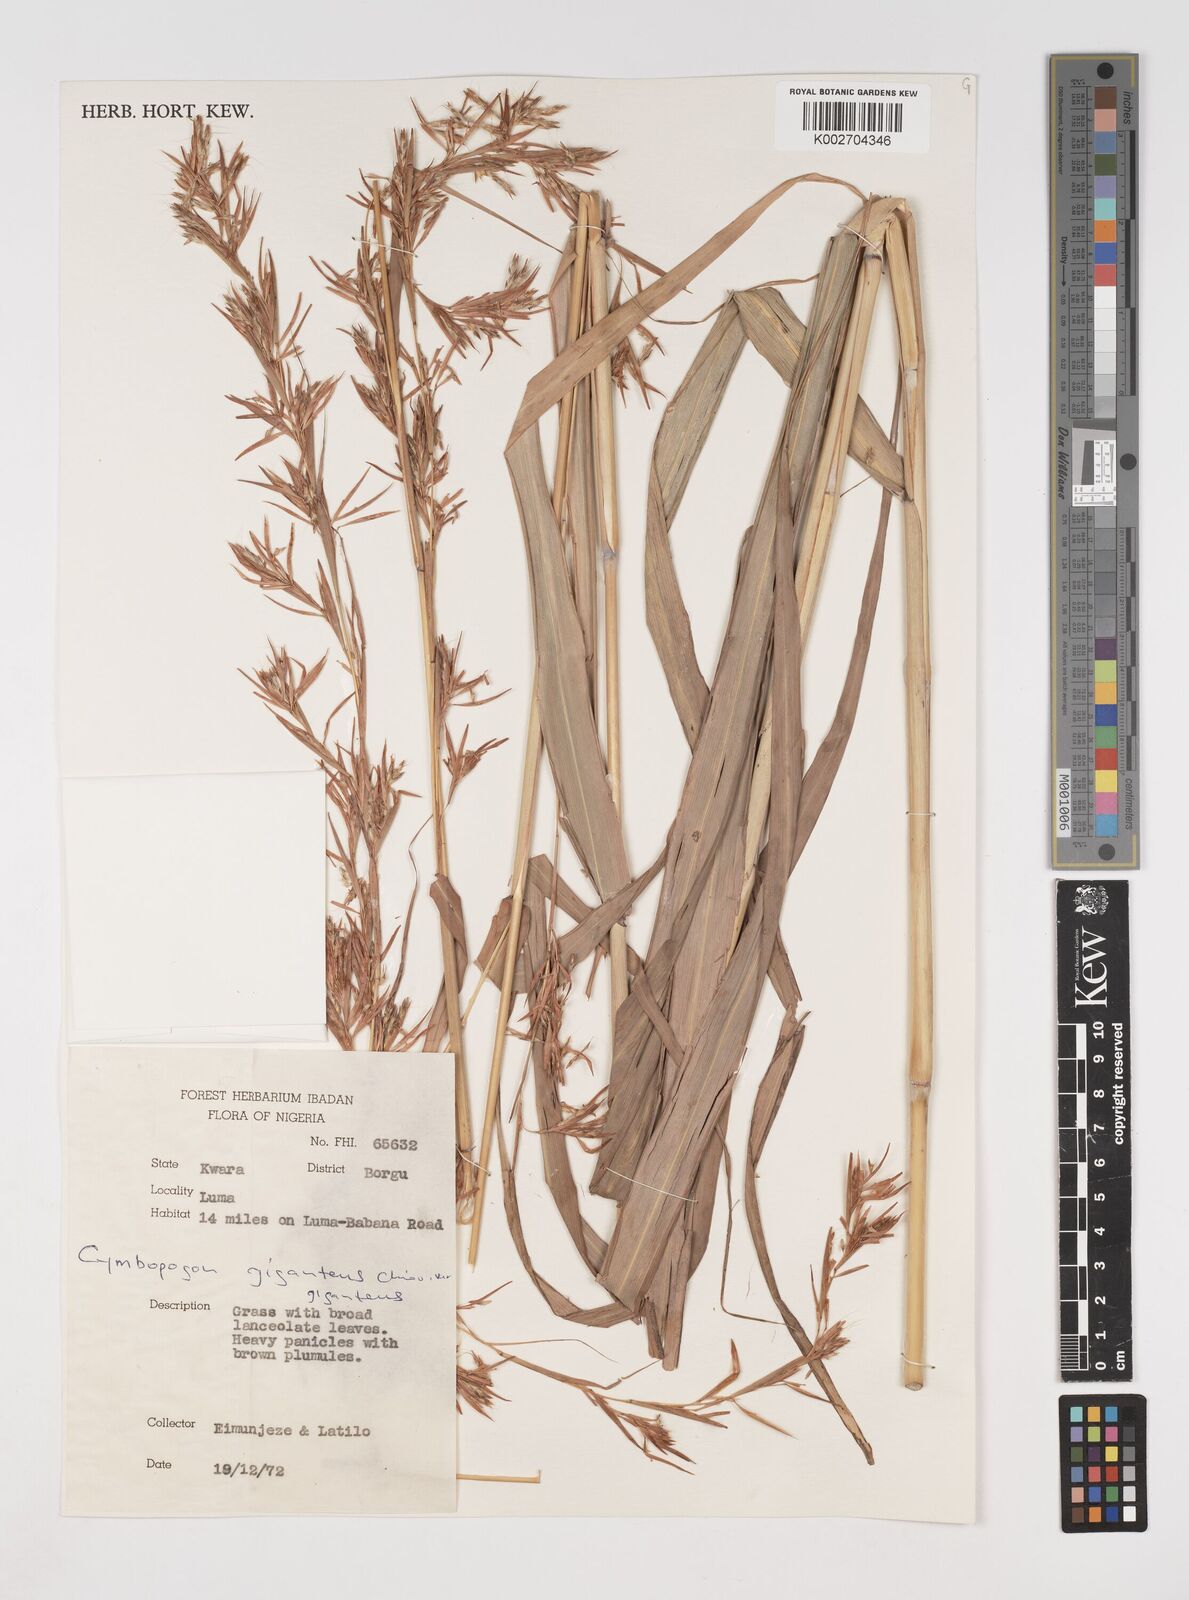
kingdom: Plantae
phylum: Tracheophyta
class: Liliopsida
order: Poales
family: Poaceae
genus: Cymbopogon
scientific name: Cymbopogon giganteus
